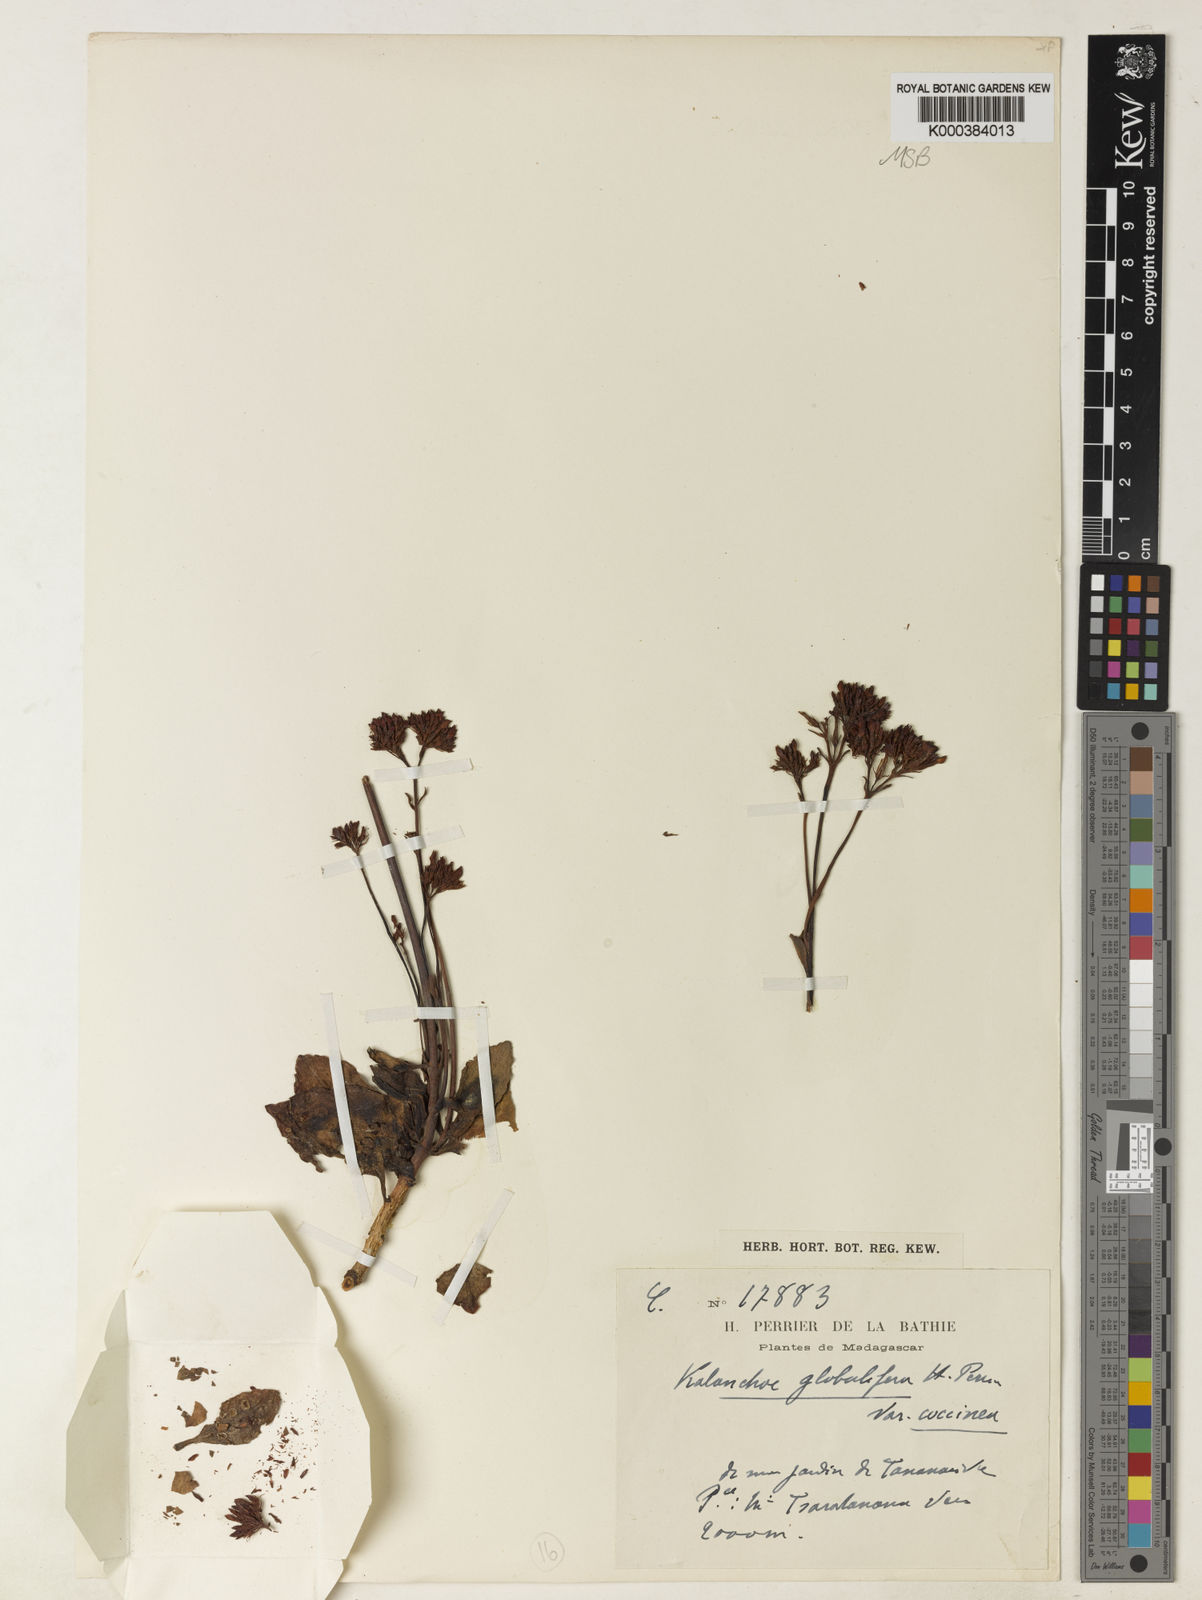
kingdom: Plantae
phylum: Tracheophyta
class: Magnoliopsida
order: Saxifragales
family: Crassulaceae
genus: Kalanchoe
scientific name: Kalanchoe blossfeldiana
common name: Flaming katy
